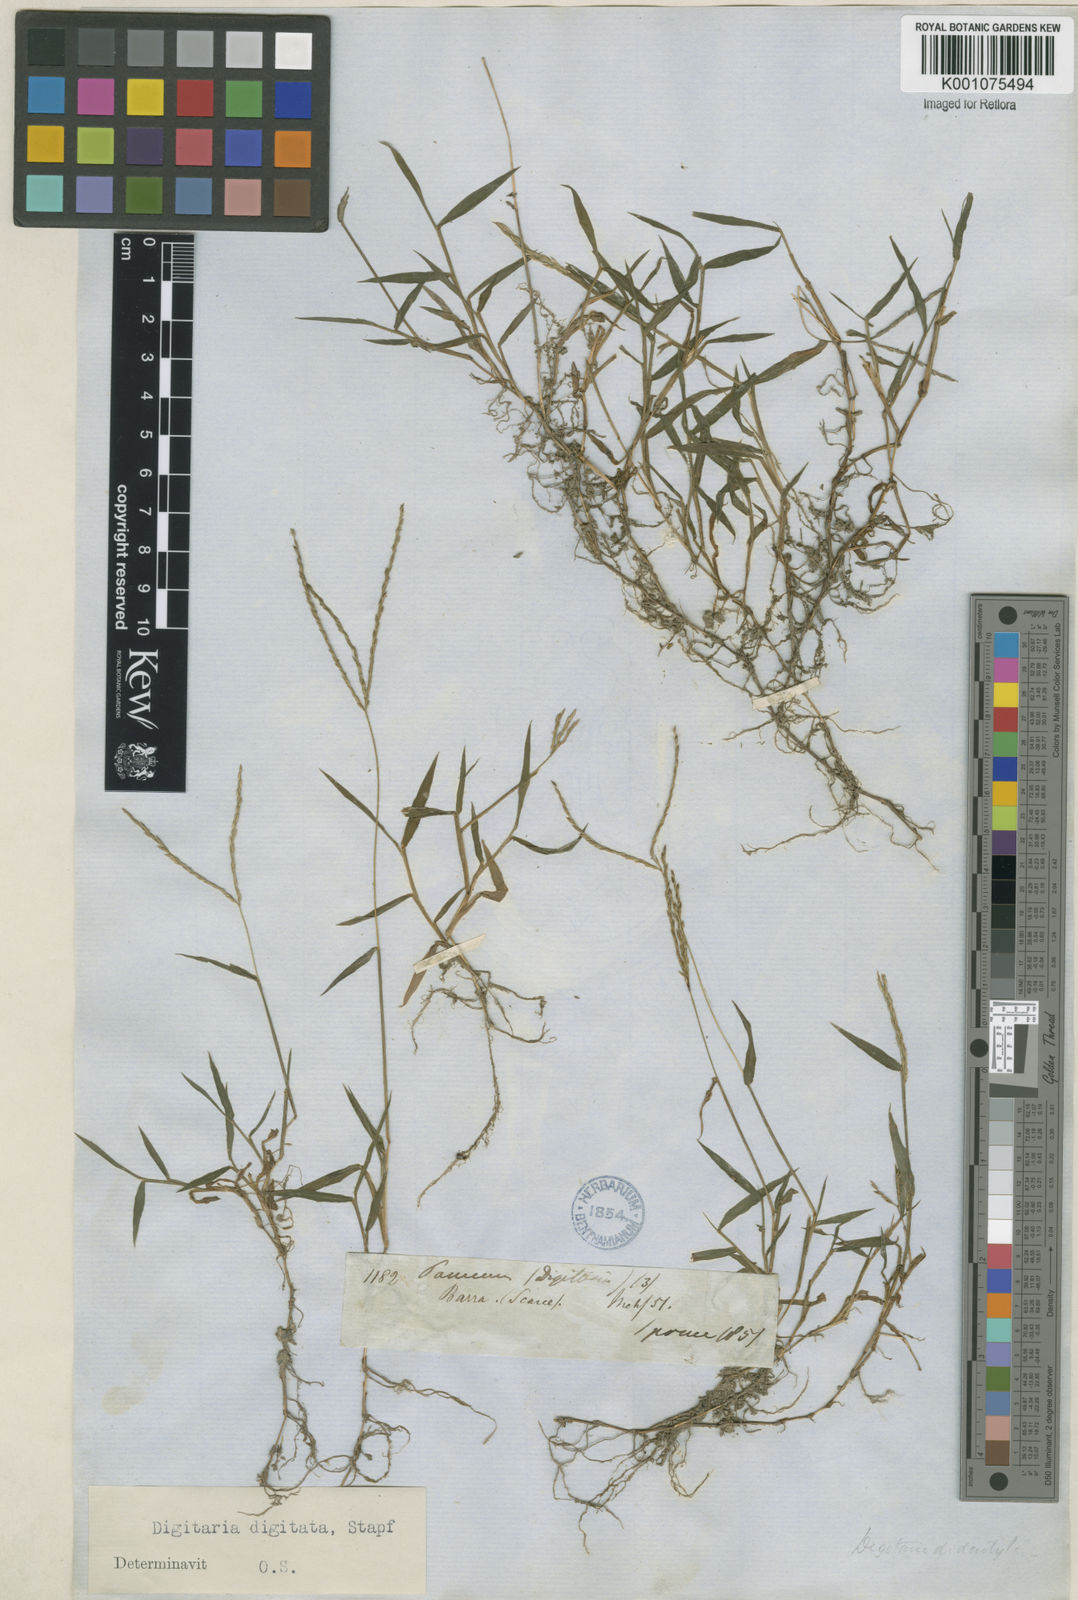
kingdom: Plantae
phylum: Tracheophyta
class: Liliopsida
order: Poales
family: Poaceae
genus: Digitaria
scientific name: Digitaria nuda
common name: Naked crabgrass
